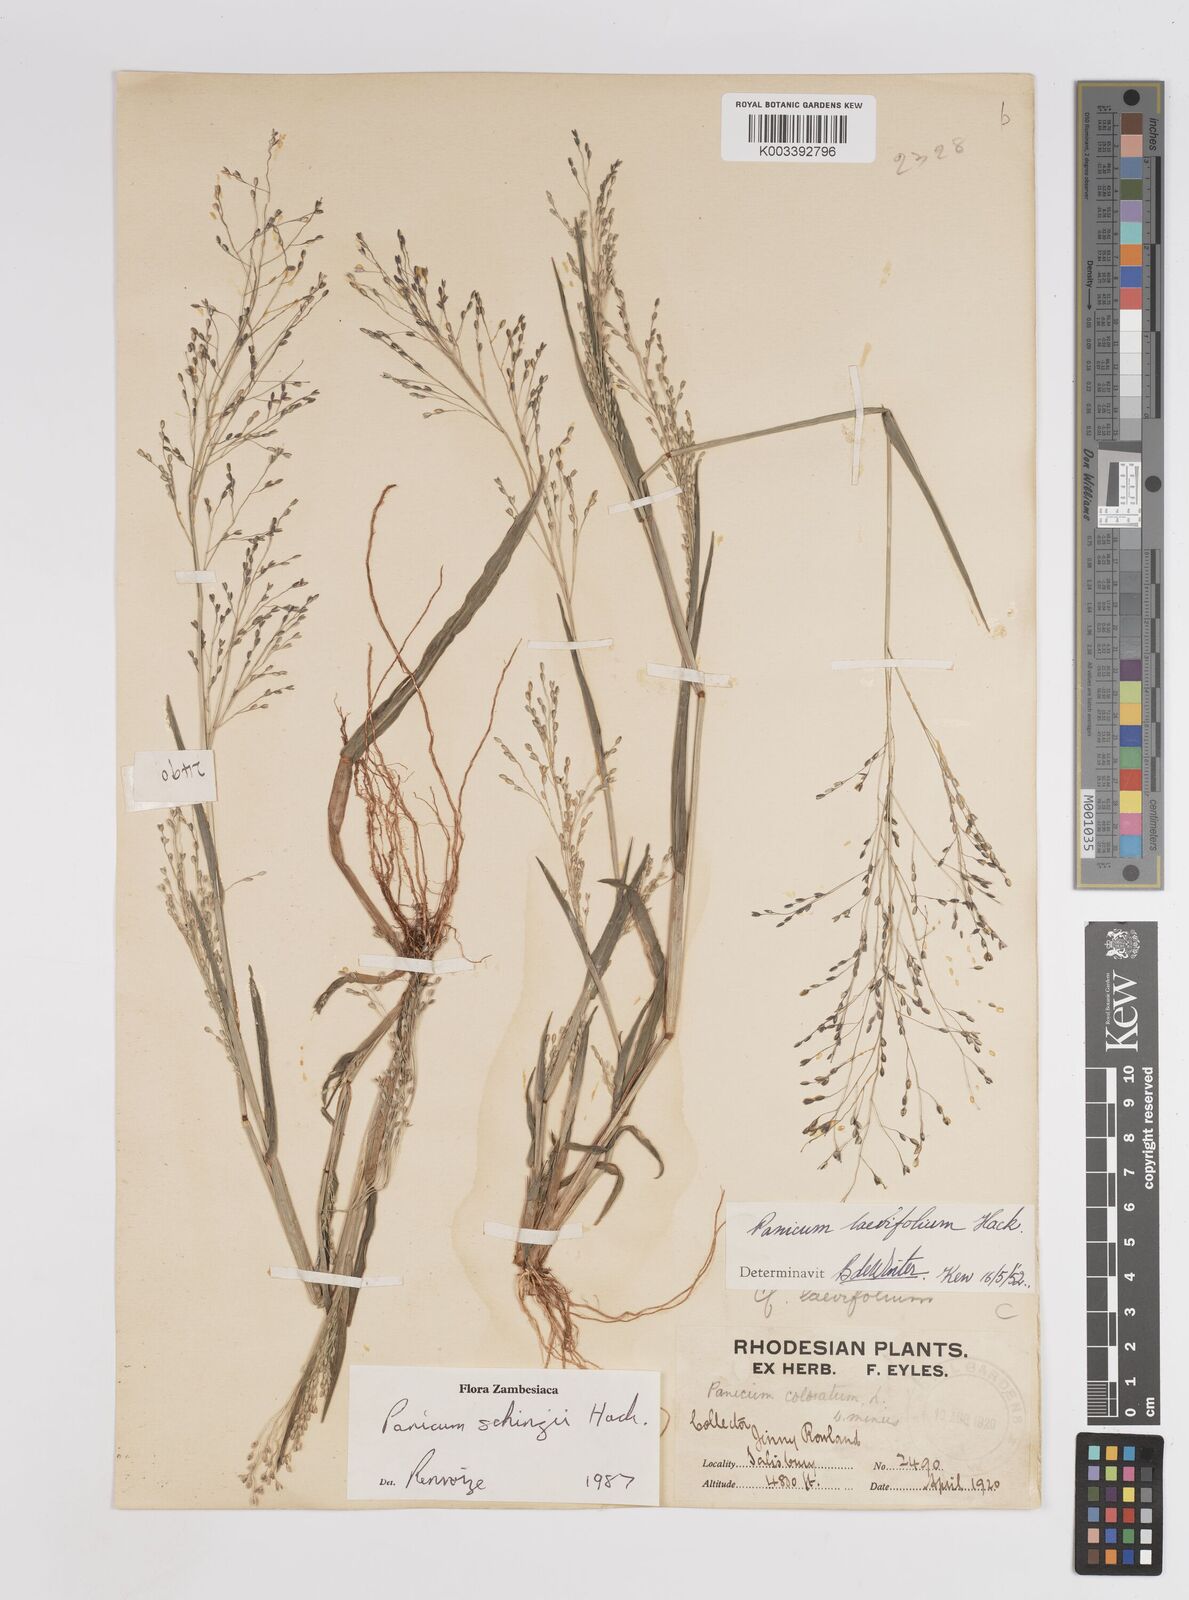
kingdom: Plantae
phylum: Tracheophyta
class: Liliopsida
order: Poales
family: Poaceae
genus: Panicum
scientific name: Panicum schinzii
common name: Sweet grass
